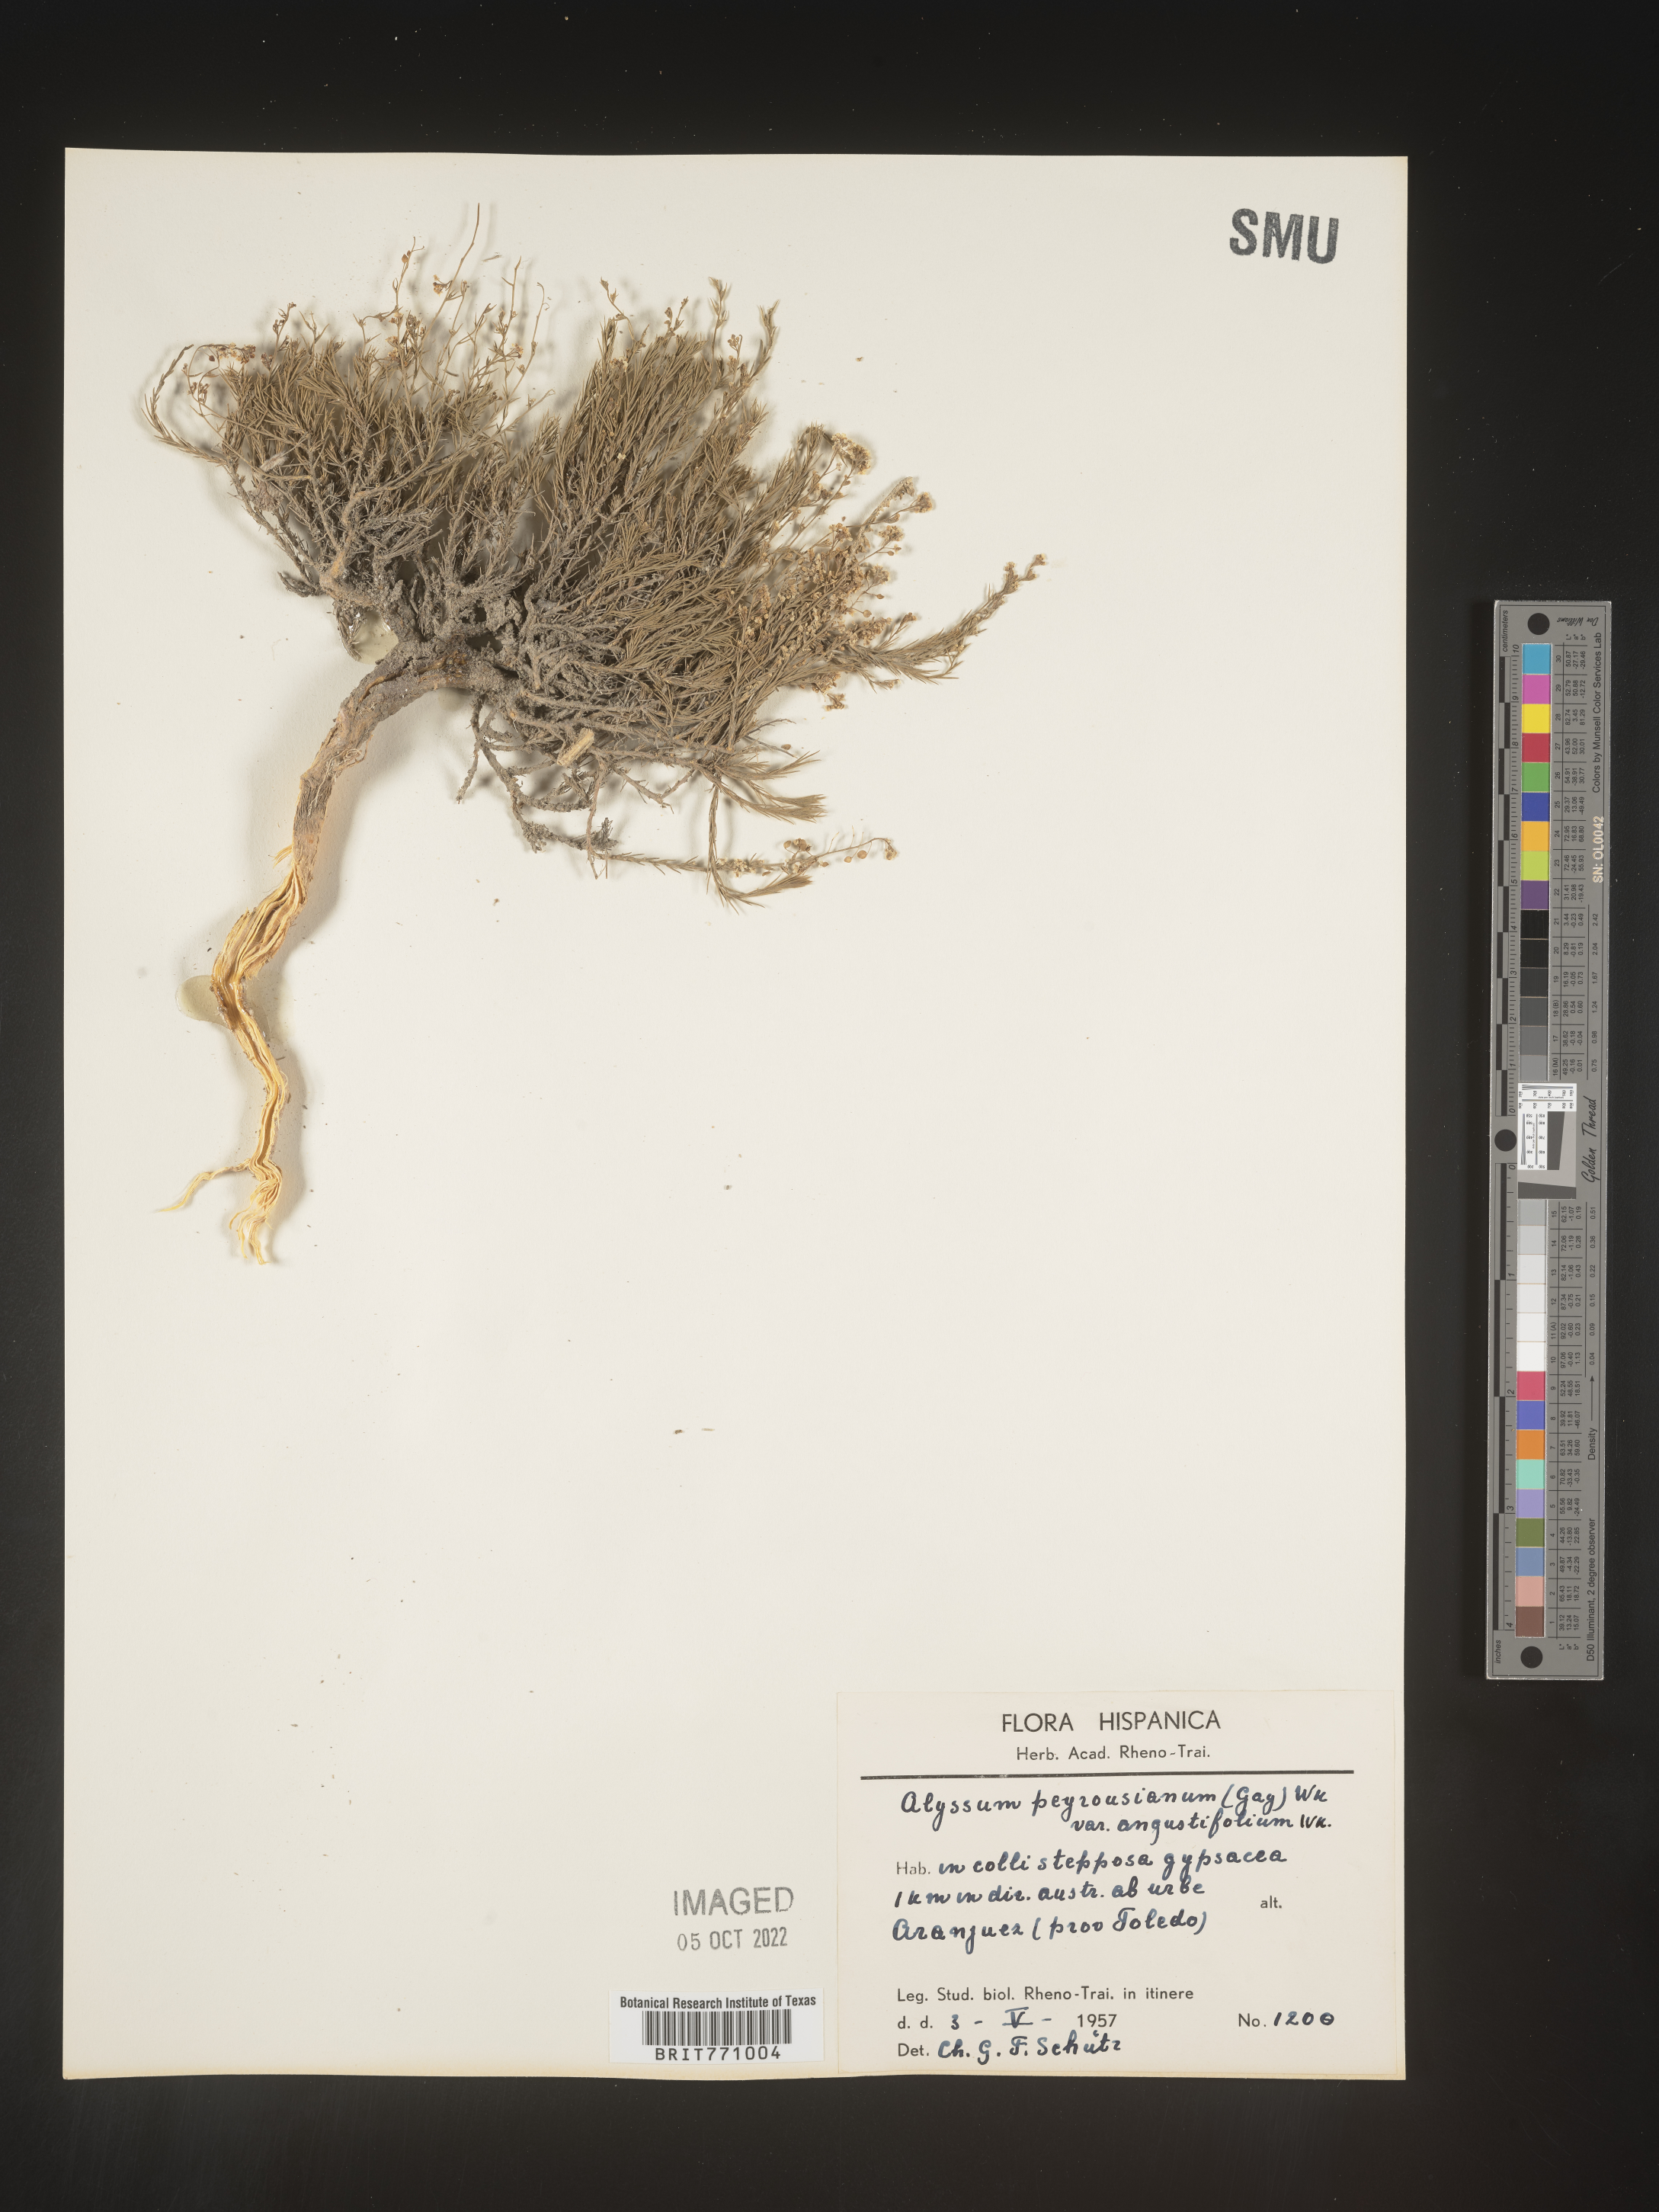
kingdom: Plantae
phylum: Tracheophyta
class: Magnoliopsida
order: Brassicales
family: Brassicaceae
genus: Alyssum
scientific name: Alyssum
